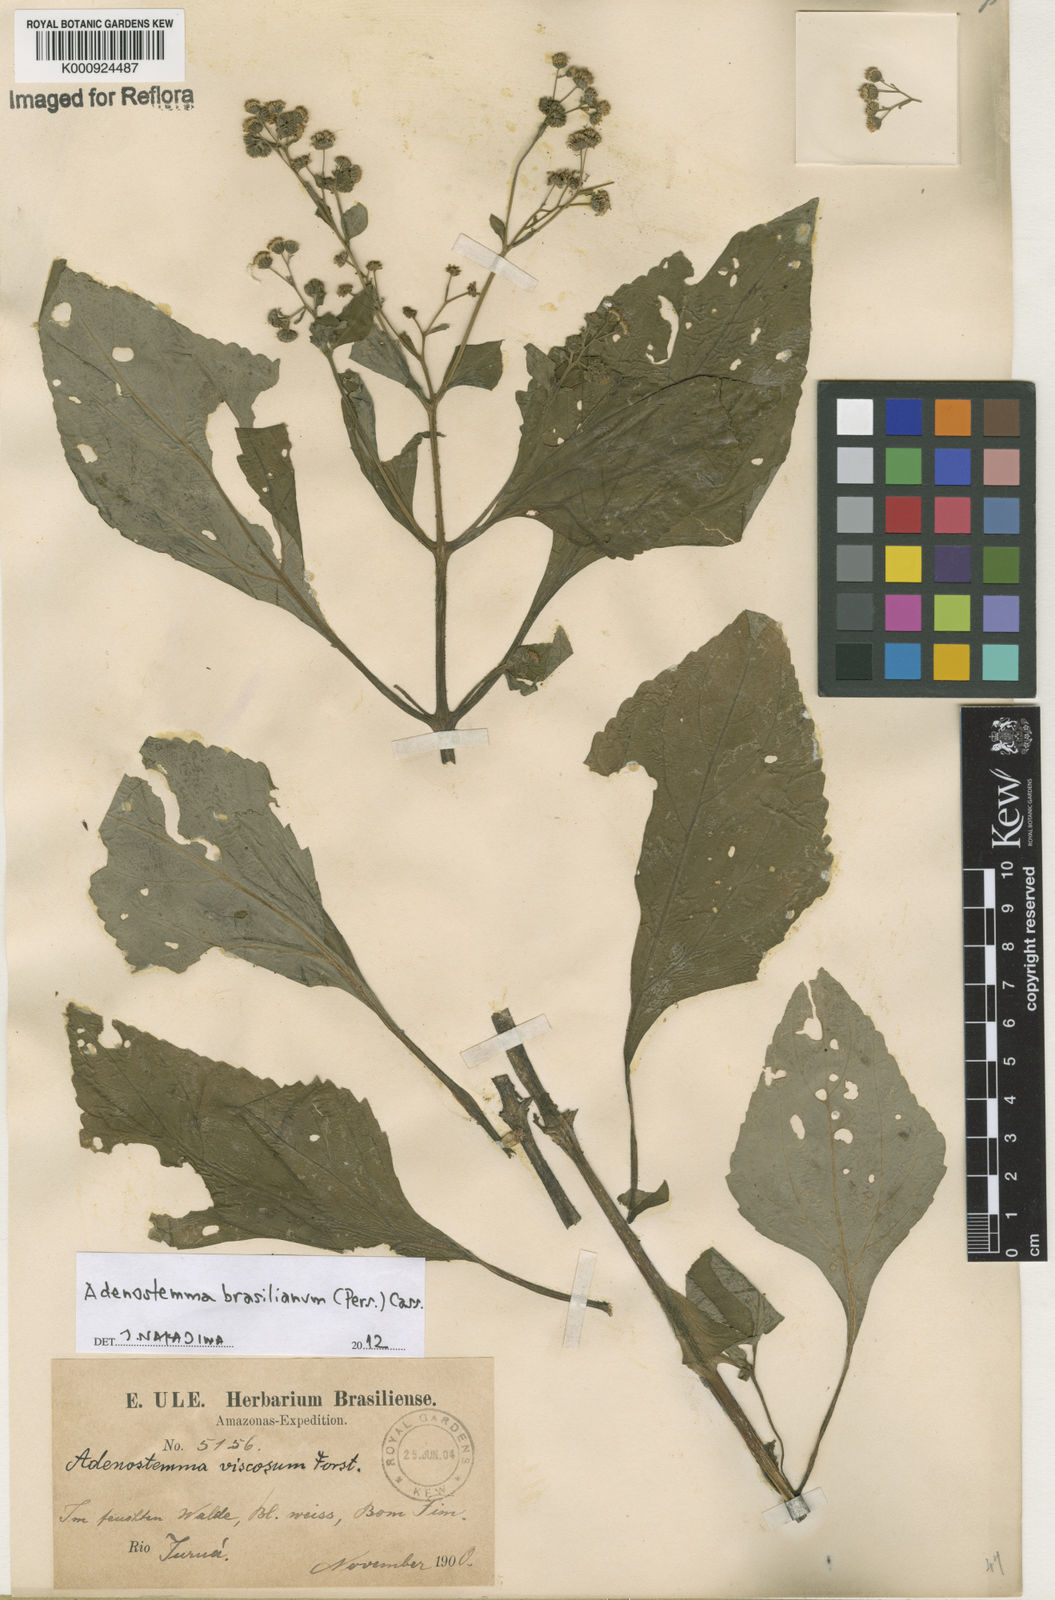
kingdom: Plantae
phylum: Tracheophyta
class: Magnoliopsida
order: Asterales
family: Asteraceae
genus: Adenostemma
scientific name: Adenostemma
